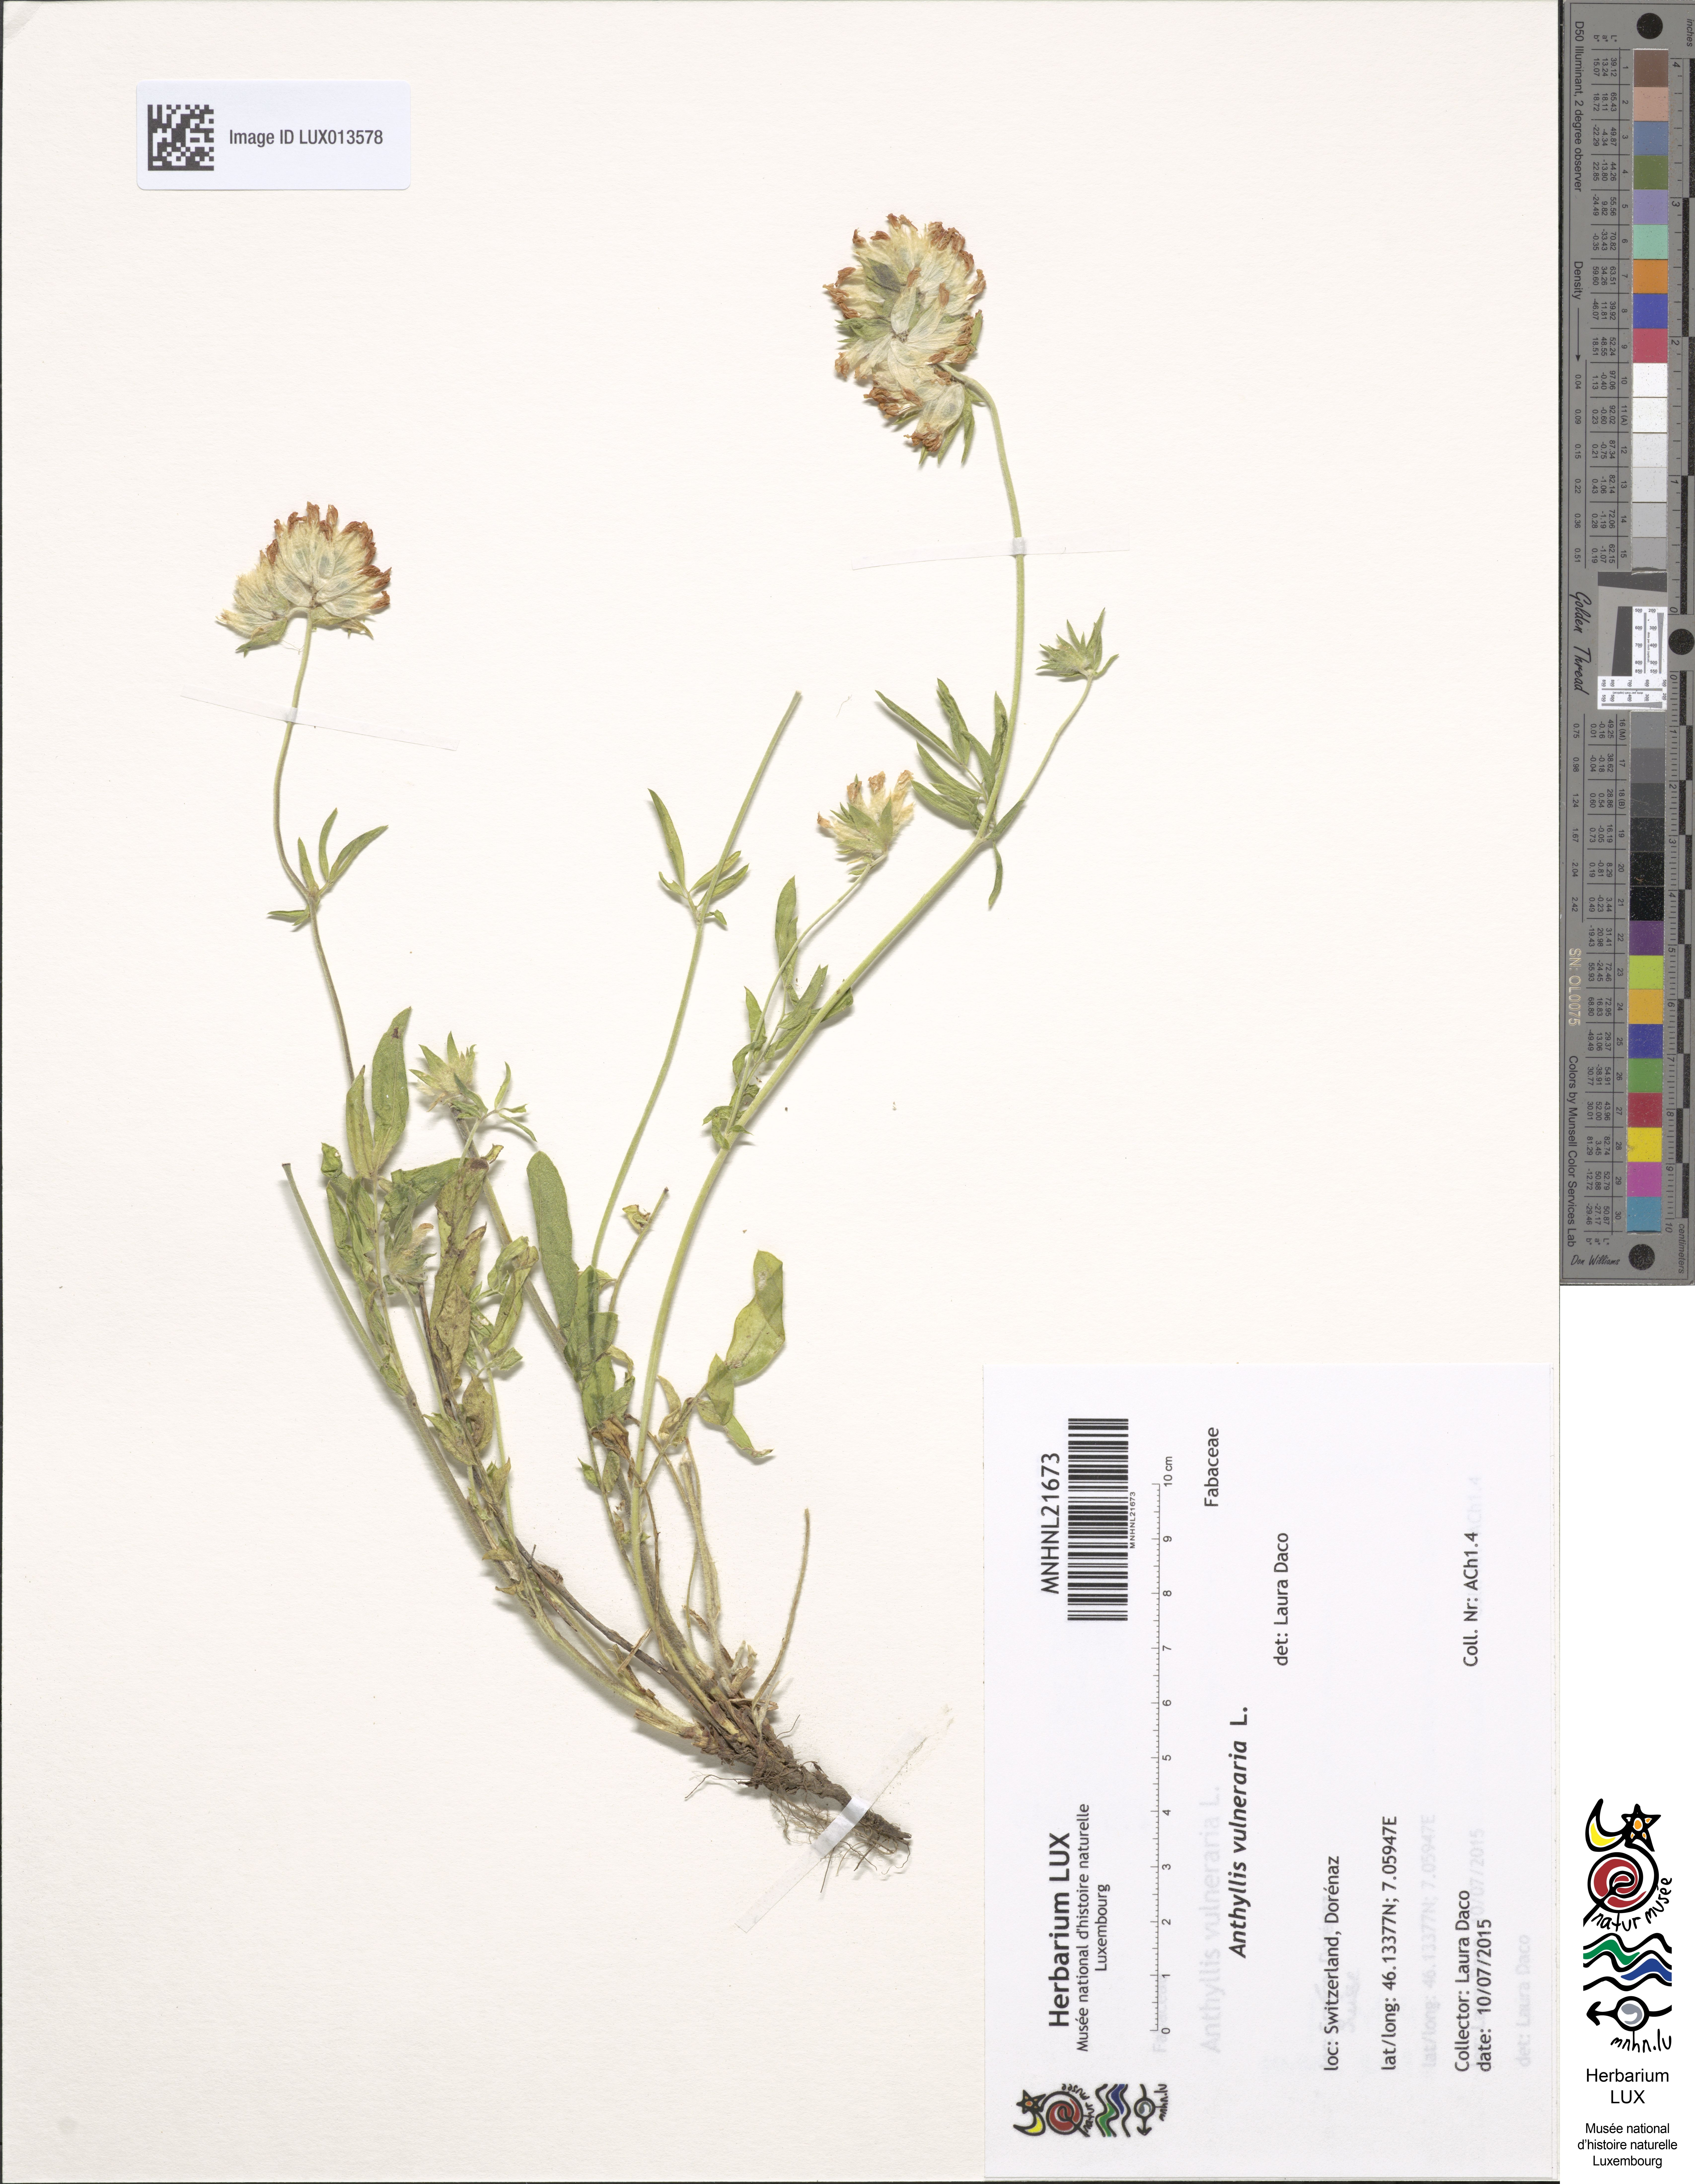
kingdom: Plantae
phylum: Tracheophyta
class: Magnoliopsida
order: Fabales
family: Fabaceae
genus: Anthyllis
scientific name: Anthyllis vulneraria
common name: Kidney vetch
